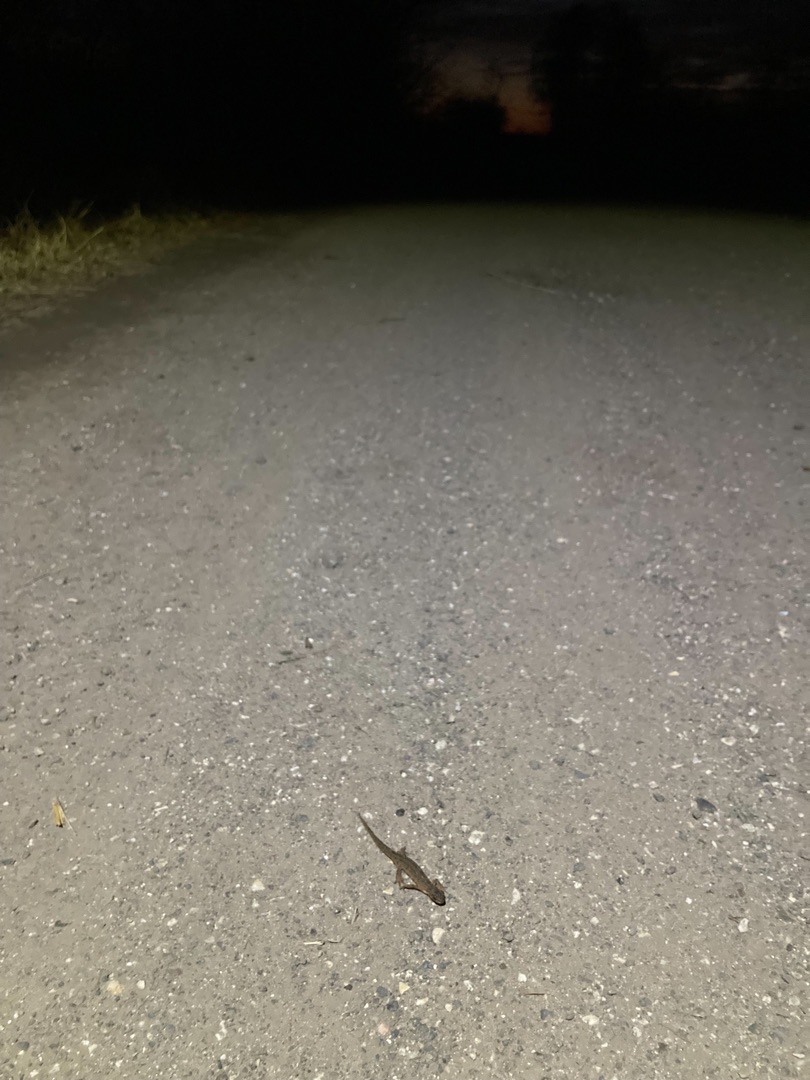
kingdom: Animalia
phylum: Chordata
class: Amphibia
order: Caudata
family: Salamandridae
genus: Lissotriton
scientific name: Lissotriton vulgaris
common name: Lille vandsalamander
